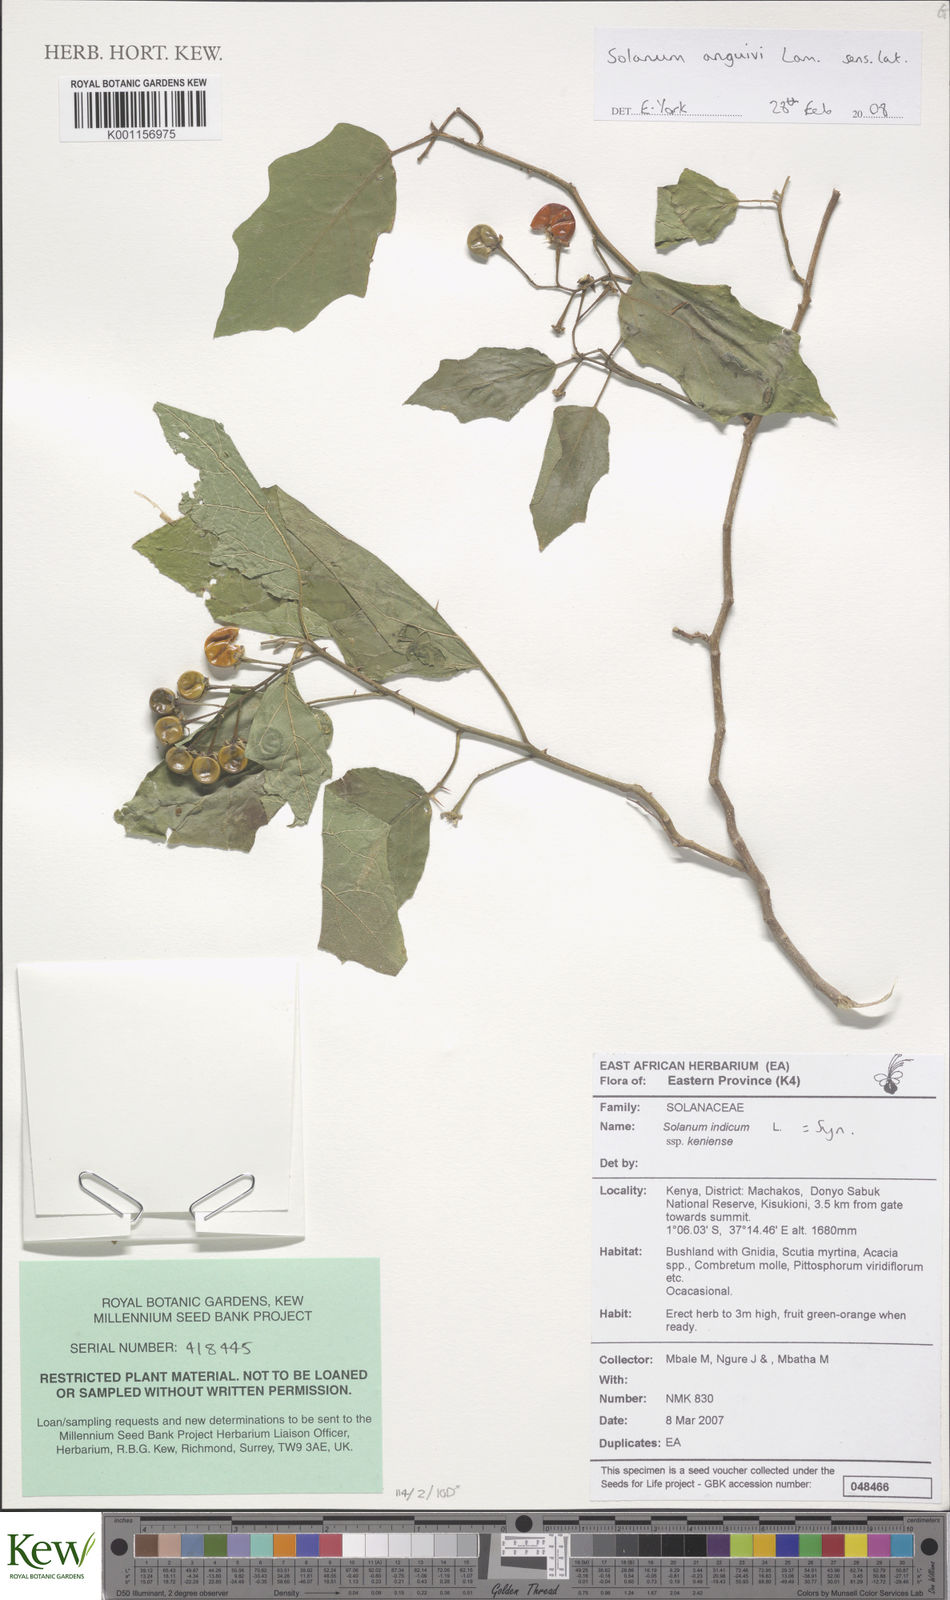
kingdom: Plantae
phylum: Tracheophyta
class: Magnoliopsida
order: Solanales
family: Solanaceae
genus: Solanum
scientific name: Solanum anguivi
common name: Forest bitterberry
